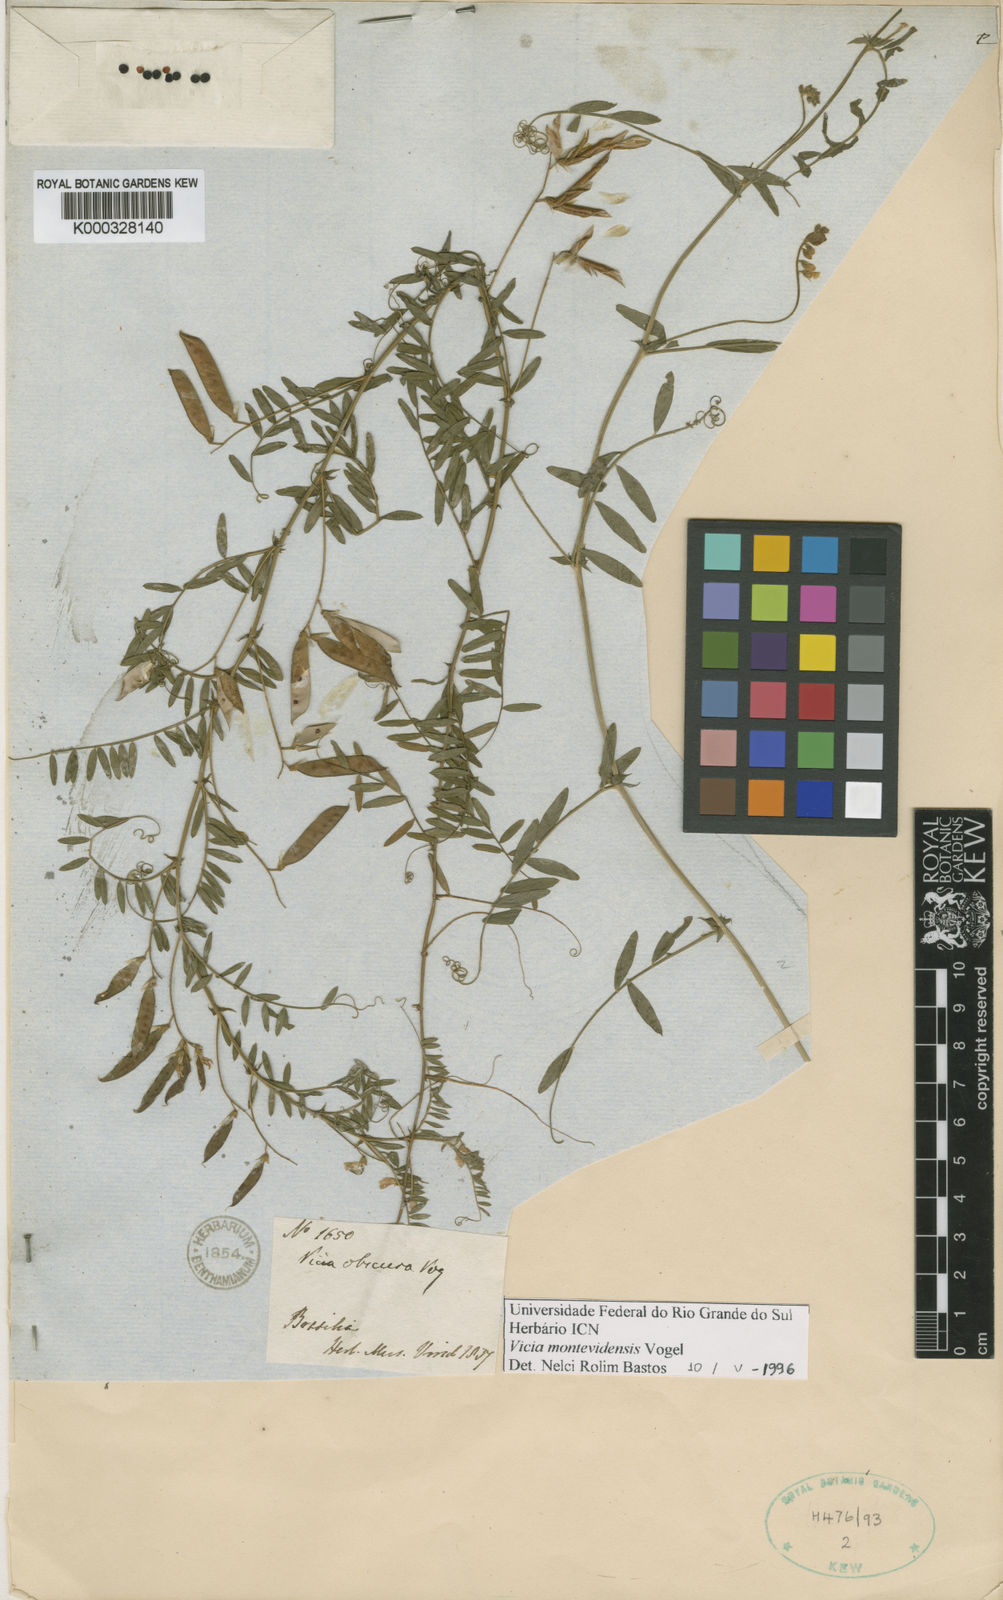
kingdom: Plantae
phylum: Tracheophyta
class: Magnoliopsida
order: Fabales
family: Fabaceae
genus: Vicia
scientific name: Vicia montevidensis
